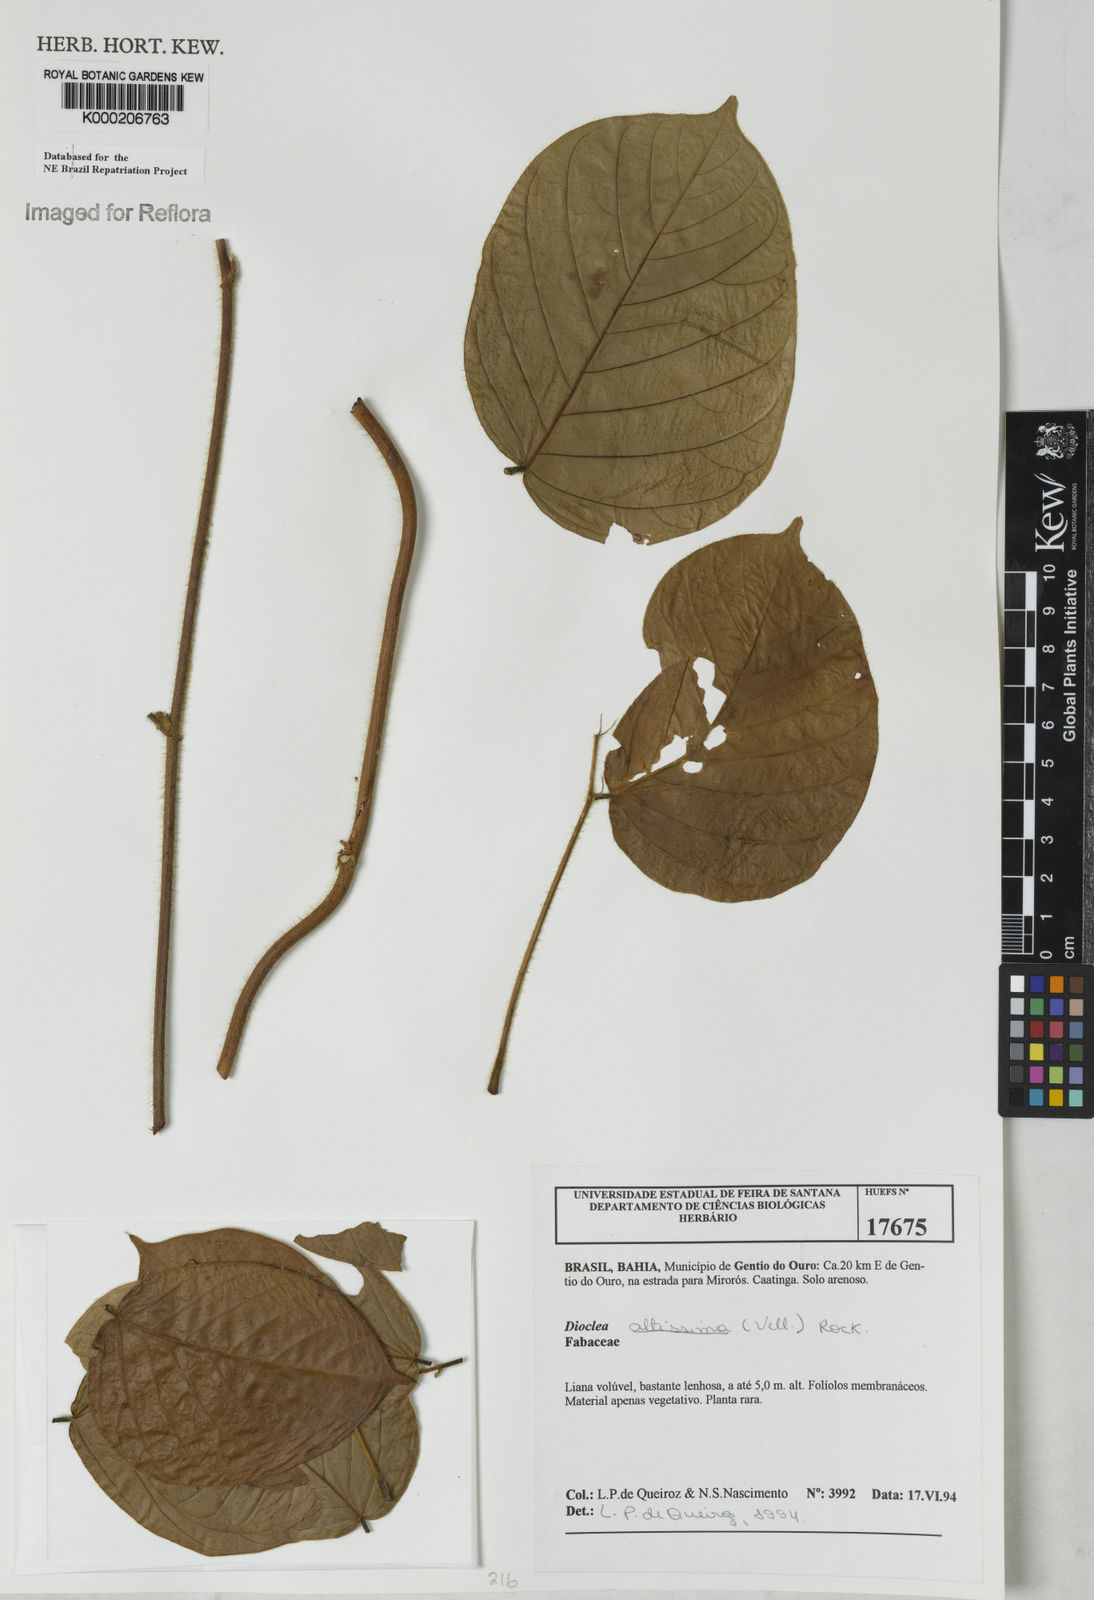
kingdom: Plantae
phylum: Tracheophyta
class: Magnoliopsida
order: Fabales
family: Fabaceae
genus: Macropsychanthus
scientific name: Macropsychanthus violaceus
